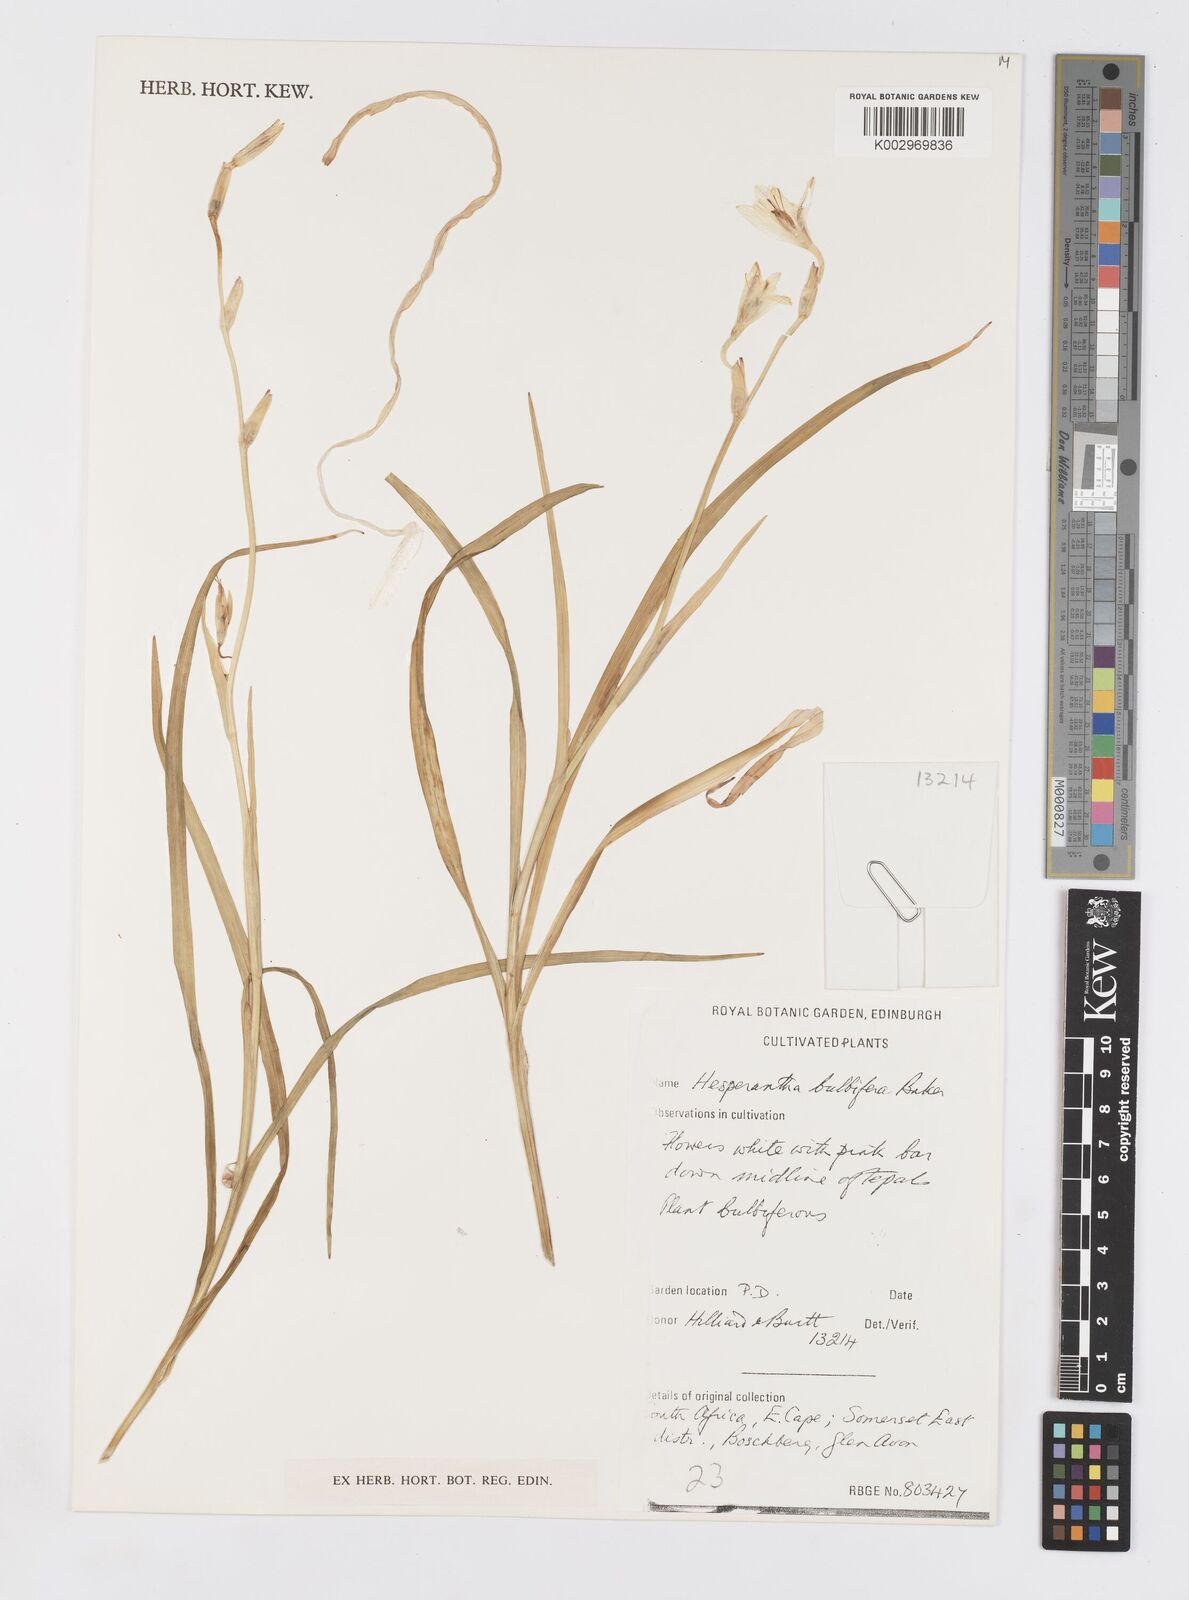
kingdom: Plantae
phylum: Tracheophyta
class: Liliopsida
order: Asparagales
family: Iridaceae
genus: Hesperantha
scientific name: Hesperantha bulbifera
